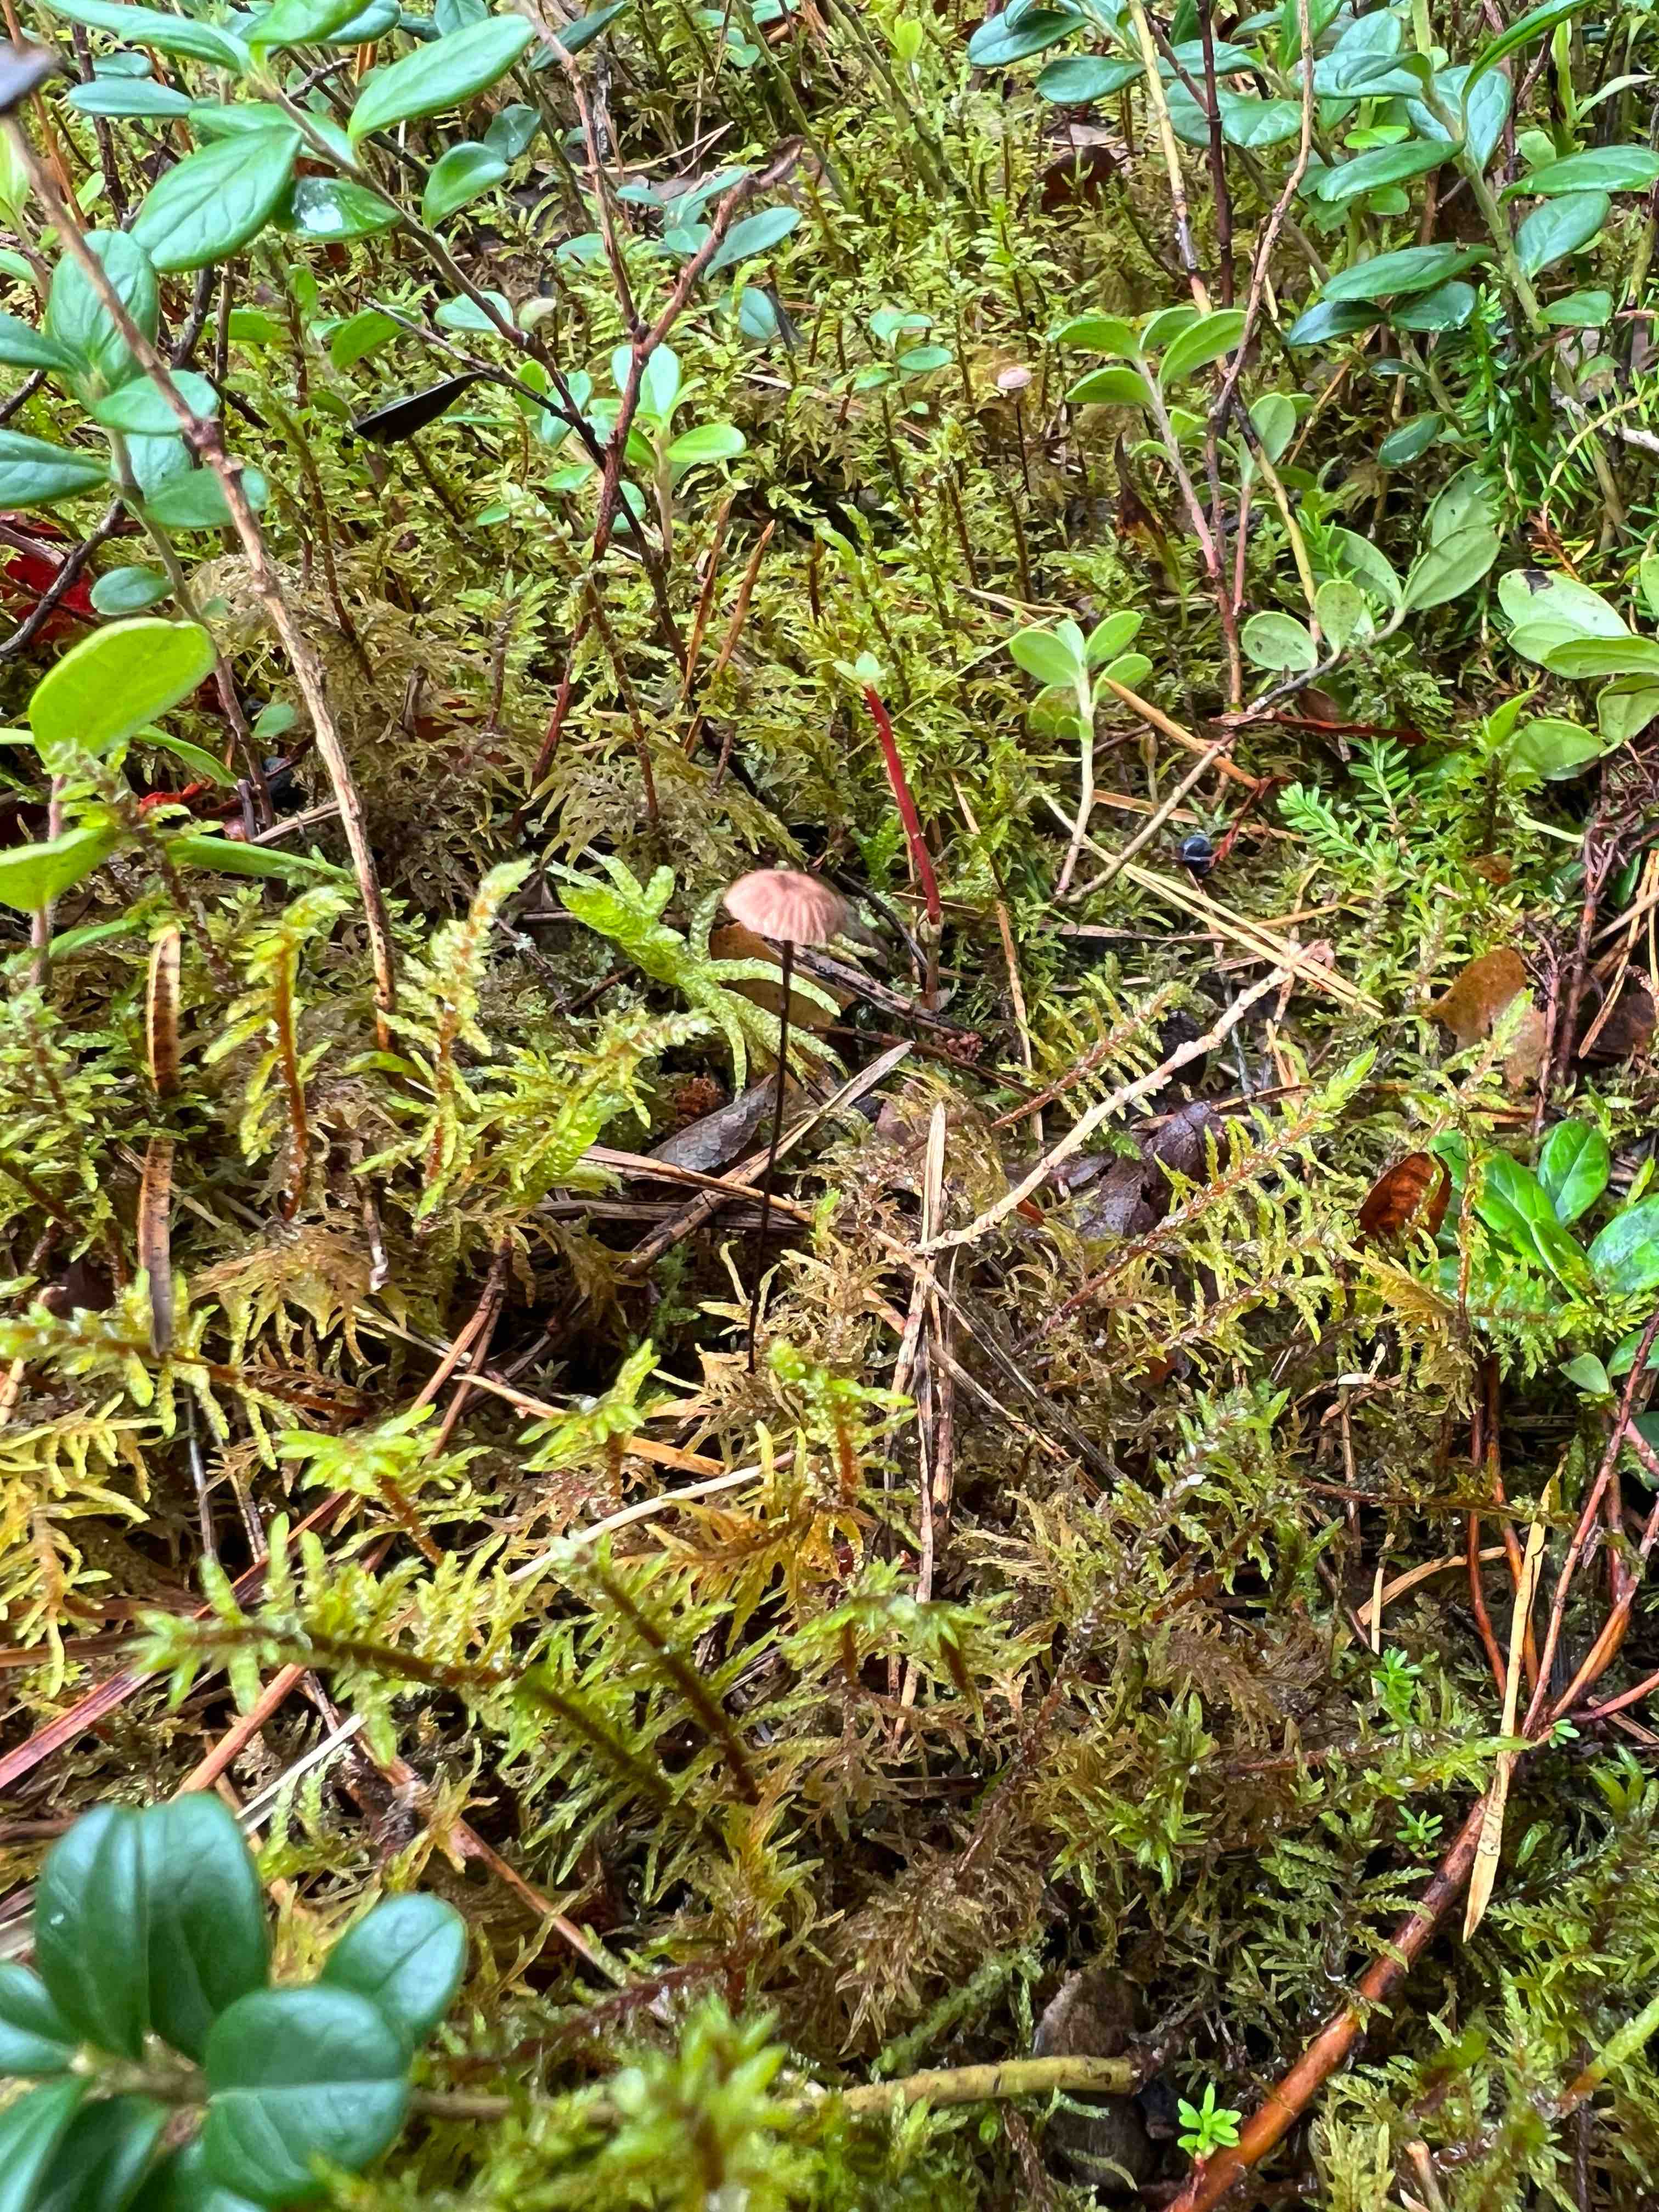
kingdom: Fungi
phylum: Basidiomycota
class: Agaricomycetes
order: Agaricales
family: Omphalotaceae
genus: Gymnopus
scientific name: Gymnopus androsaceus
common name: trådstokket fladhat
